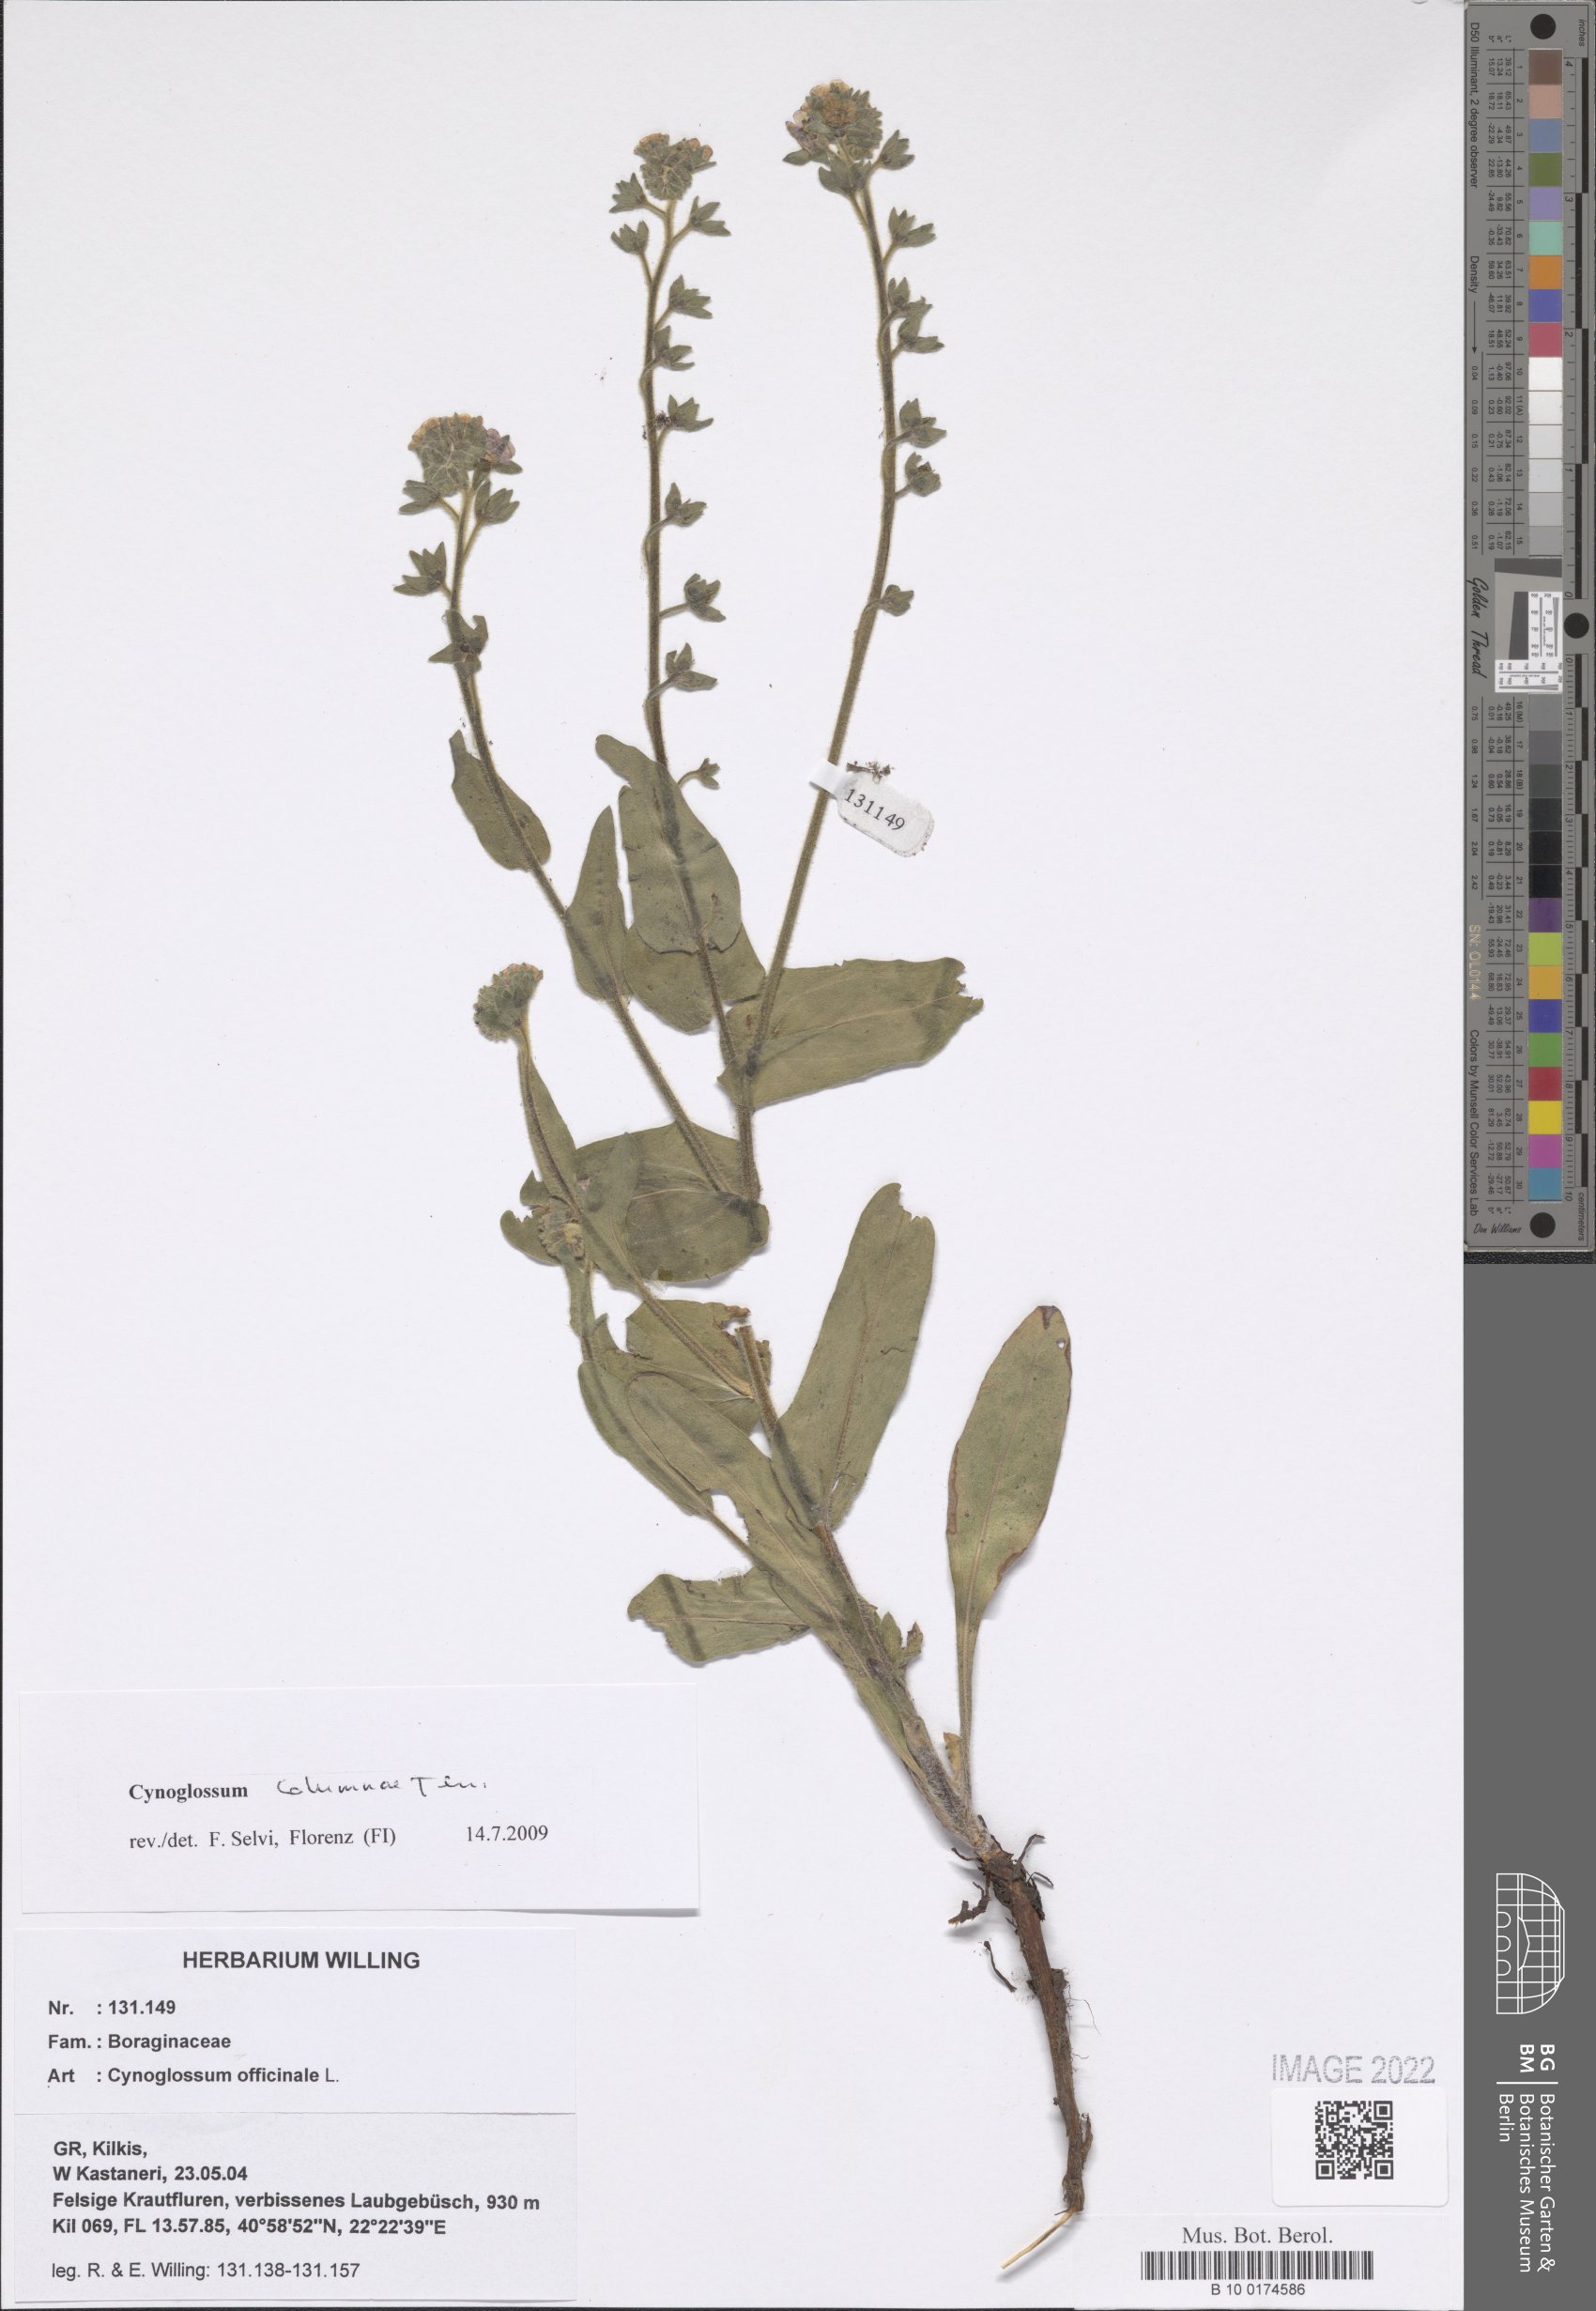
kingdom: Plantae
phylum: Tracheophyta
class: Magnoliopsida
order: Boraginales
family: Boraginaceae
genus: Rindera
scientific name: Rindera columnae
